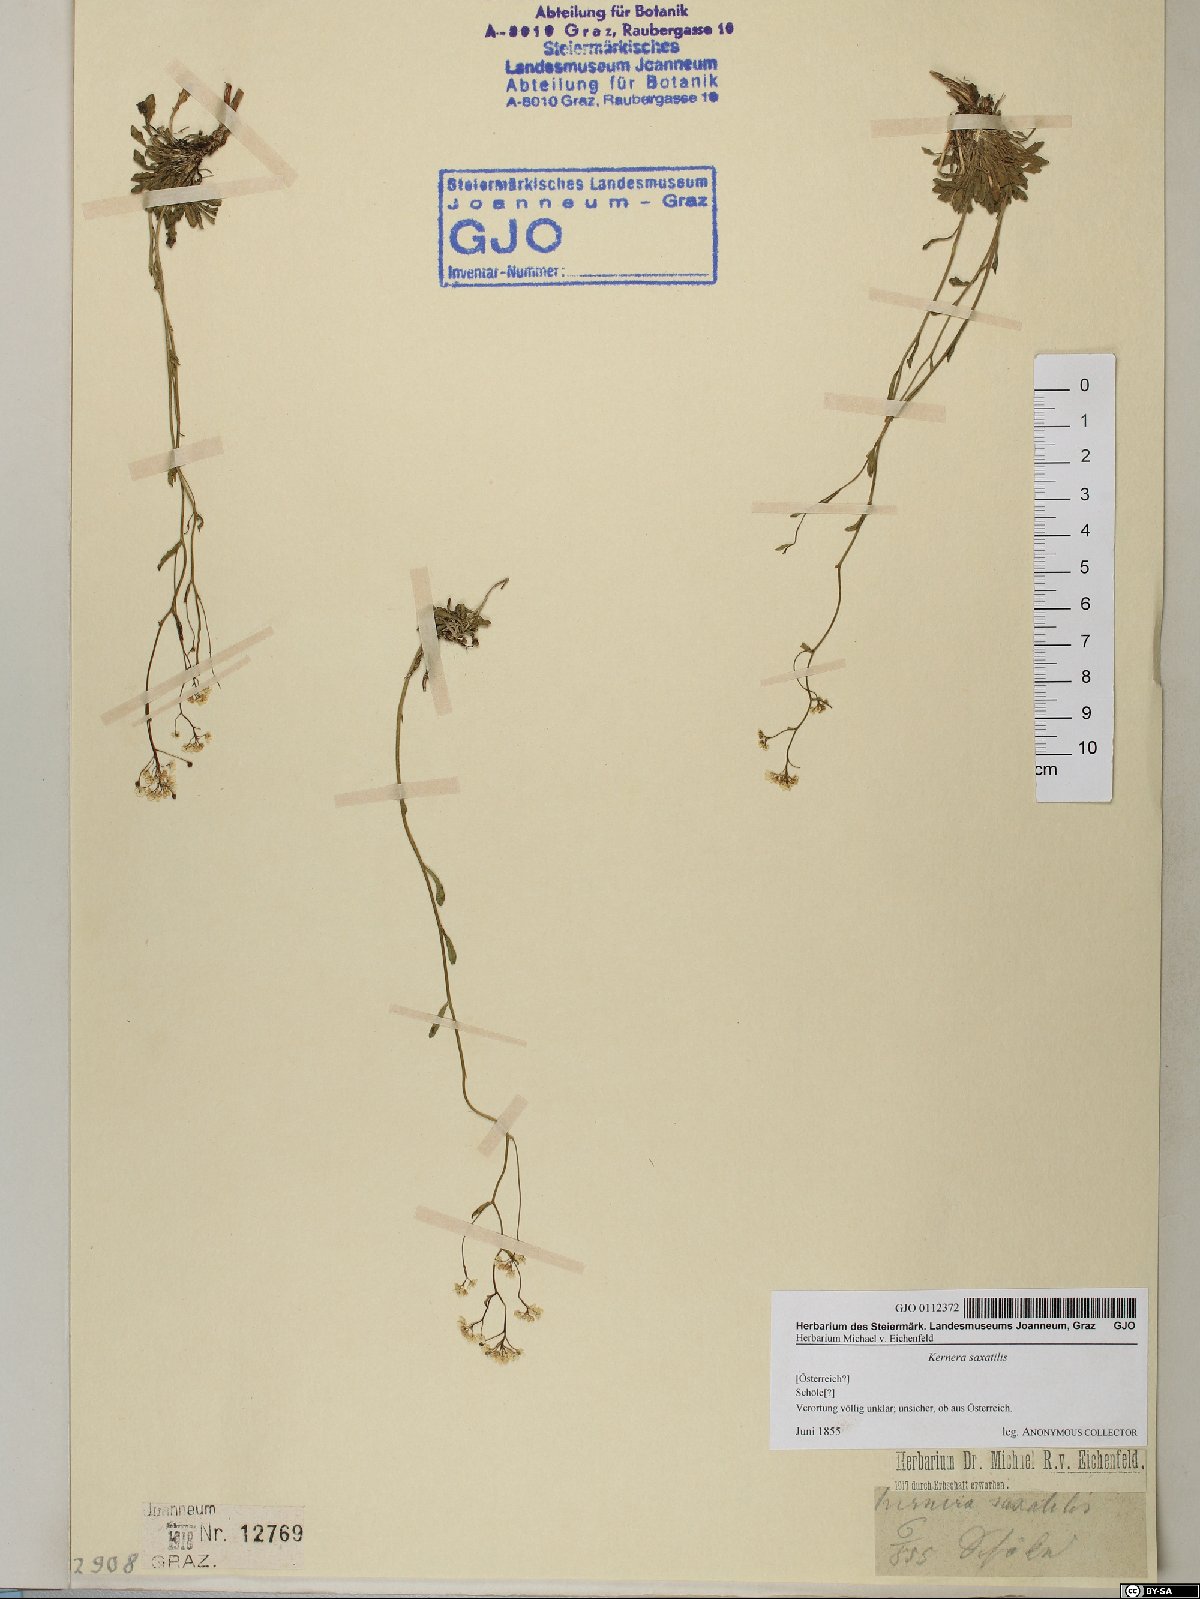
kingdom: Plantae
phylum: Tracheophyta
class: Magnoliopsida
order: Brassicales
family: Brassicaceae
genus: Kernera
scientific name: Kernera saxatilis
